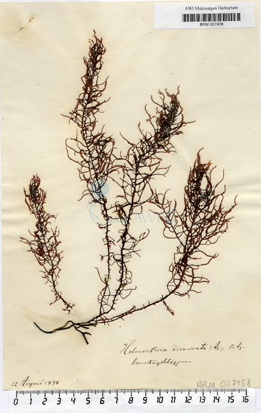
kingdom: Plantae
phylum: Rhodophyta
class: Florideophyceae
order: Nemaliales
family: Liagoraceae
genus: Helminthora
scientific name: Helminthora divaricata
